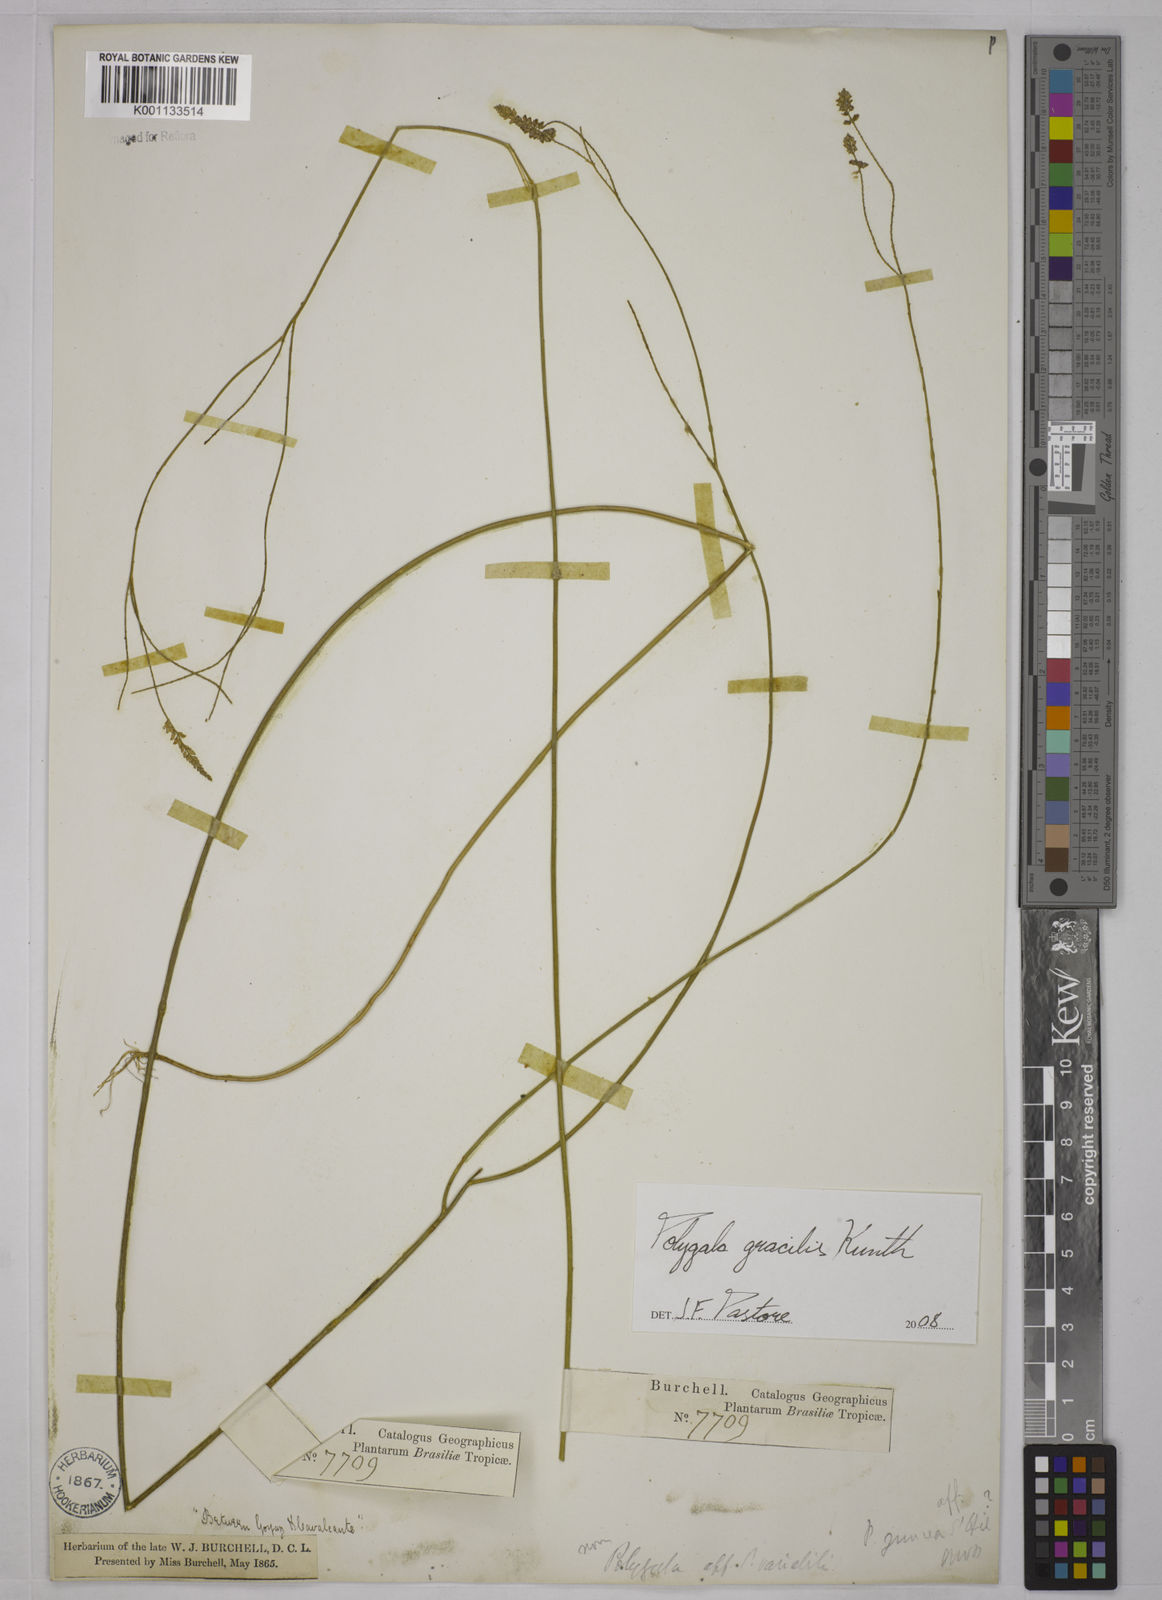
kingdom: Plantae
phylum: Tracheophyta
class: Magnoliopsida
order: Fabales
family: Polygalaceae
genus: Polygala
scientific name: Polygala gracilis
